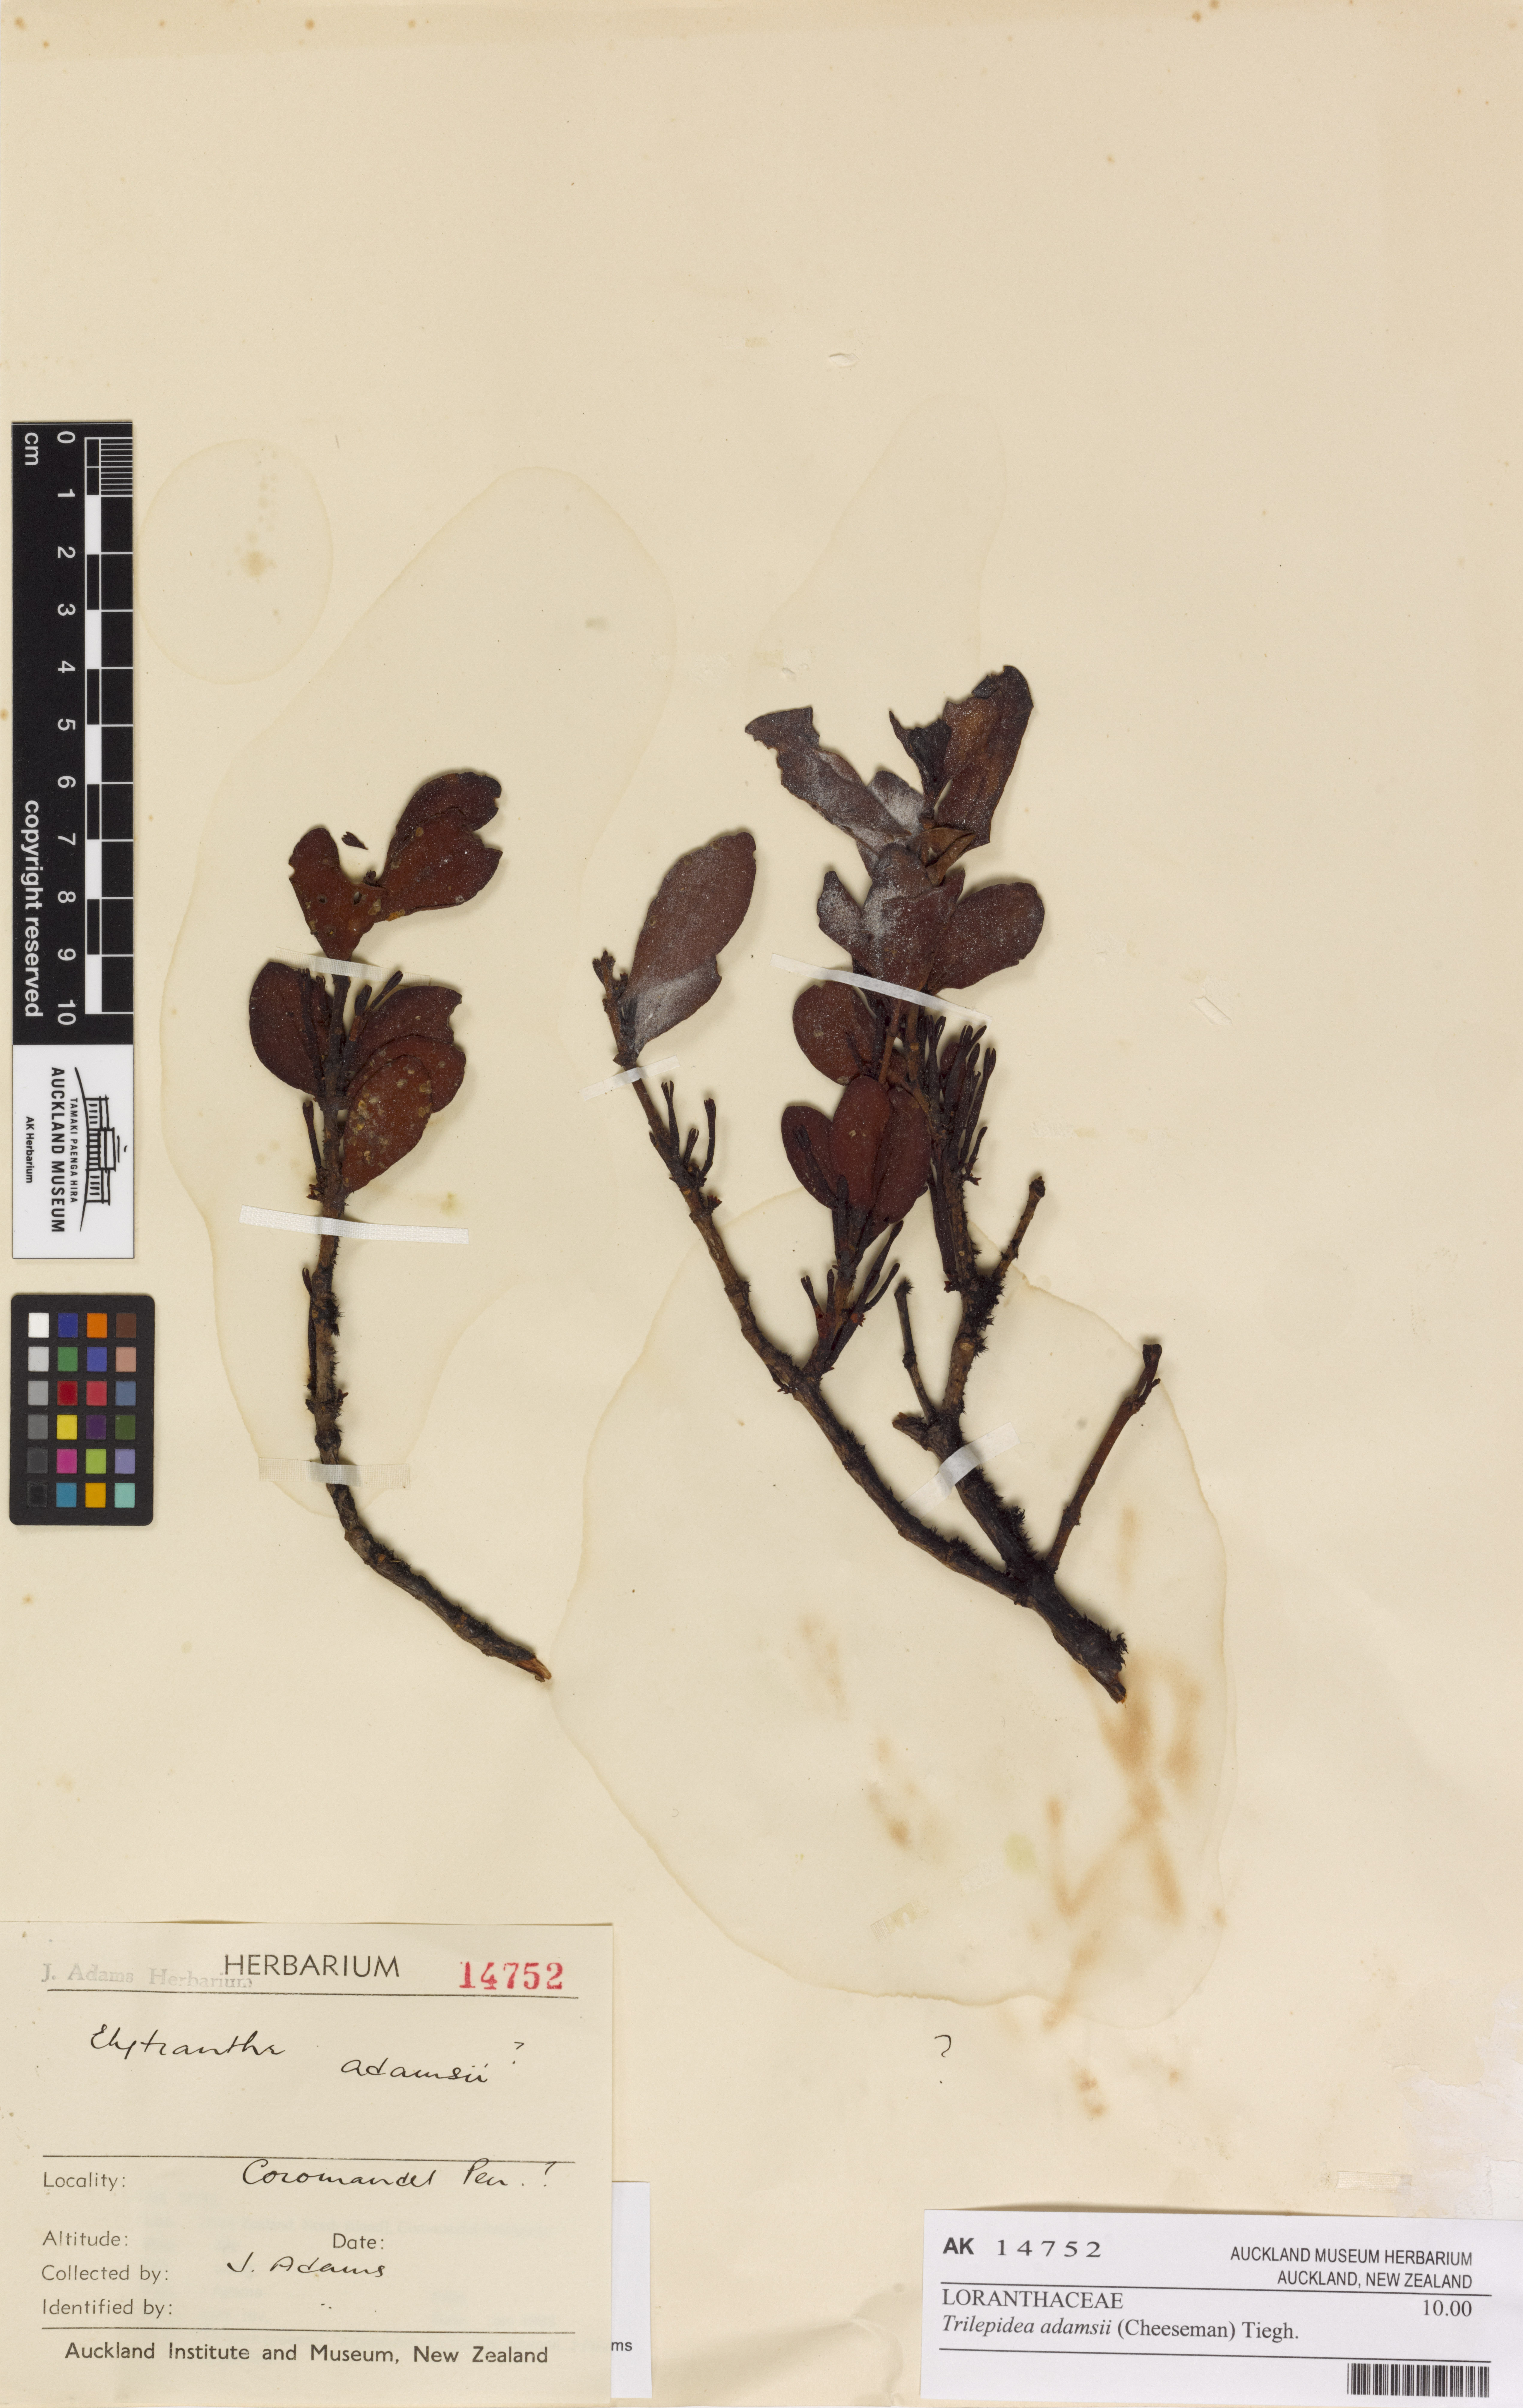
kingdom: Plantae
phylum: Tracheophyta
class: Magnoliopsida
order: Santalales
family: Loranthaceae
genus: Trilepidea
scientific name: Trilepidea adamsii
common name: Adams mistletoe
